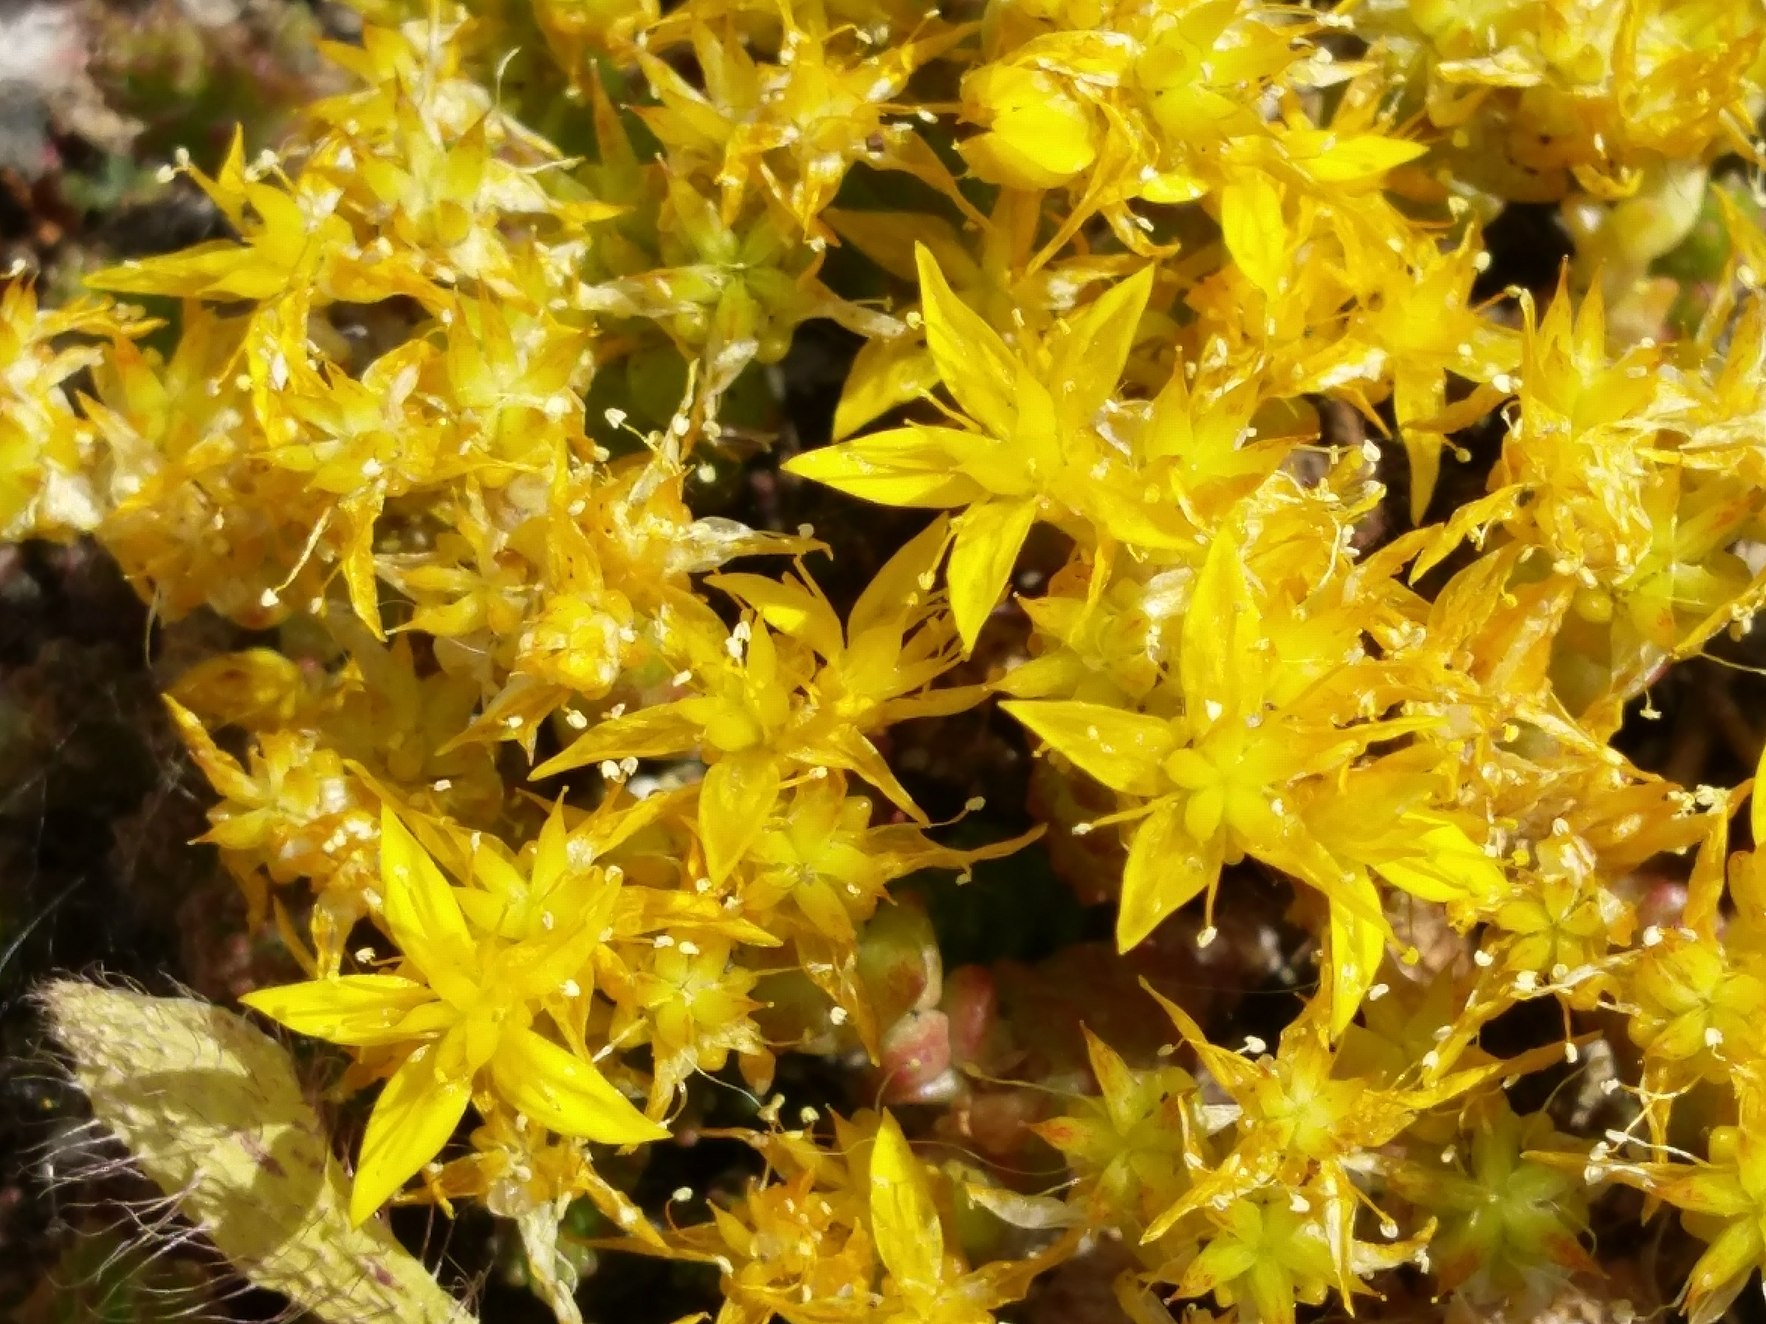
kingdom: Plantae
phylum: Tracheophyta
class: Magnoliopsida
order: Saxifragales
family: Crassulaceae
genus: Sedum
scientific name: Sedum acre
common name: Bidende stenurt
